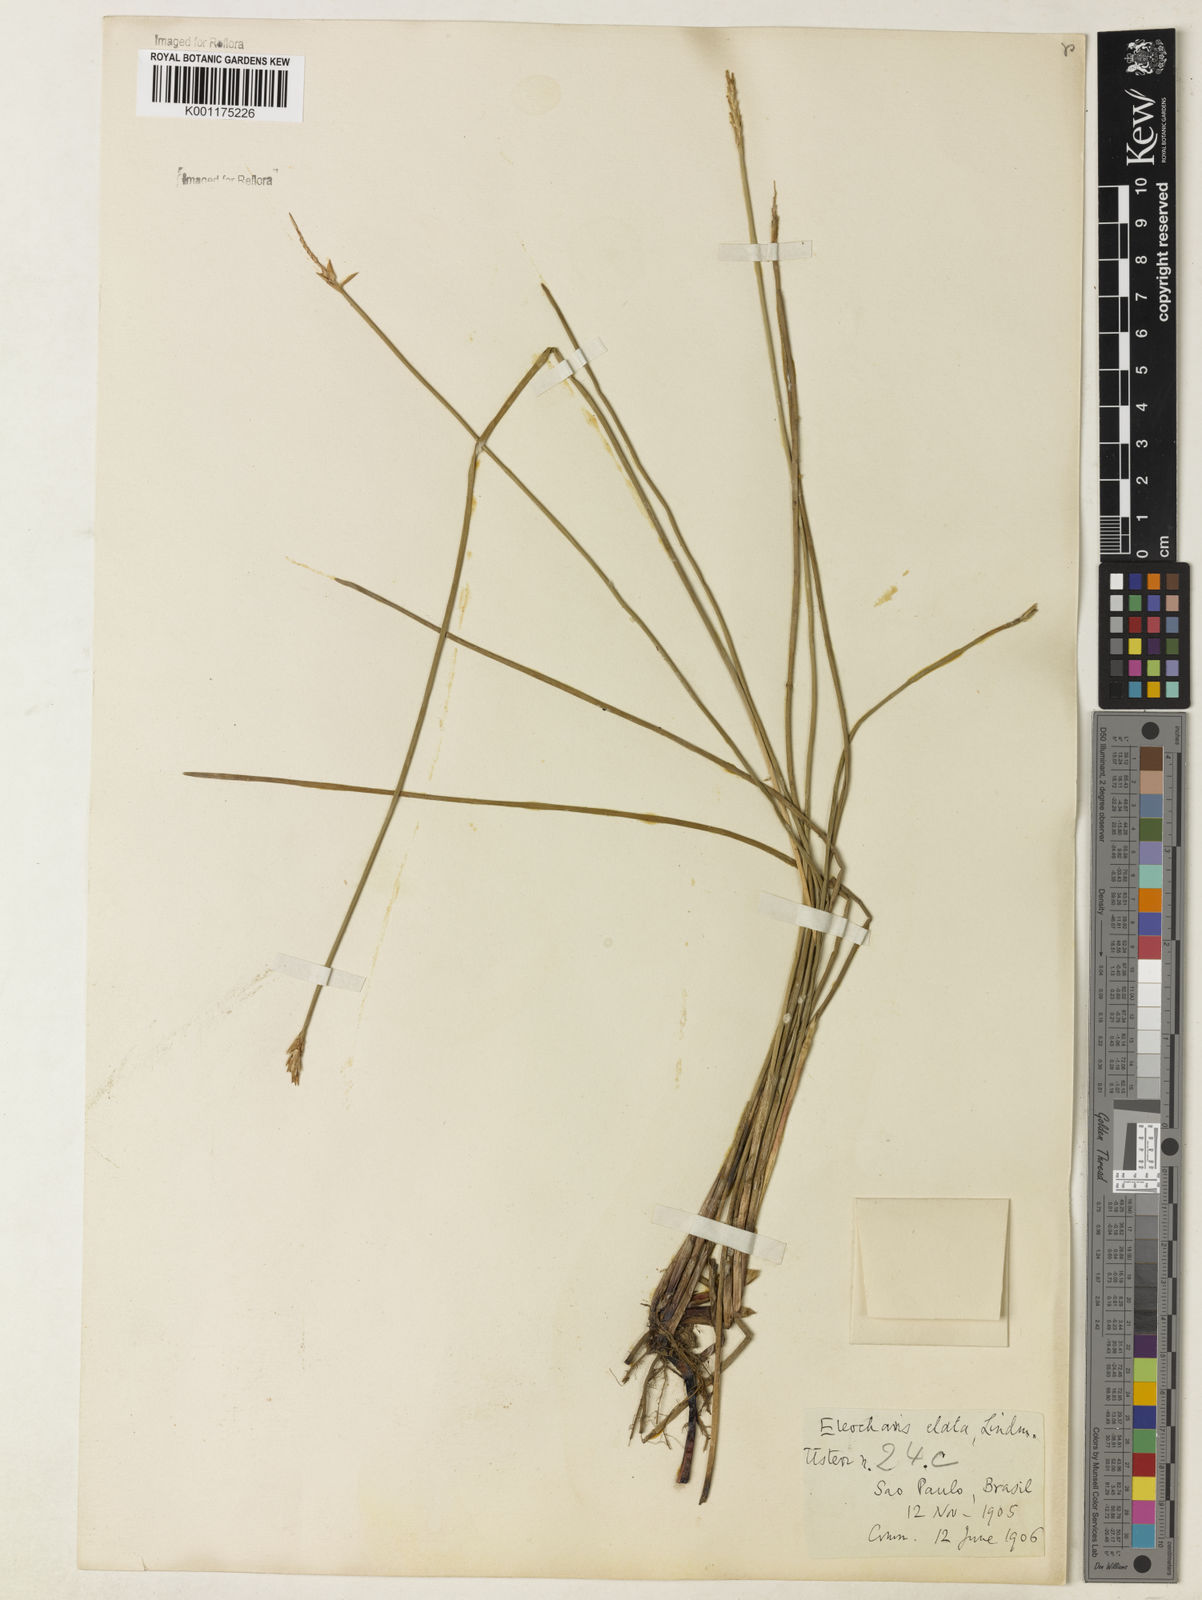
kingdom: Plantae
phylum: Tracheophyta
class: Liliopsida
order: Poales
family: Cyperaceae
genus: Eleocharis
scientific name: Eleocharis plicarhachis
